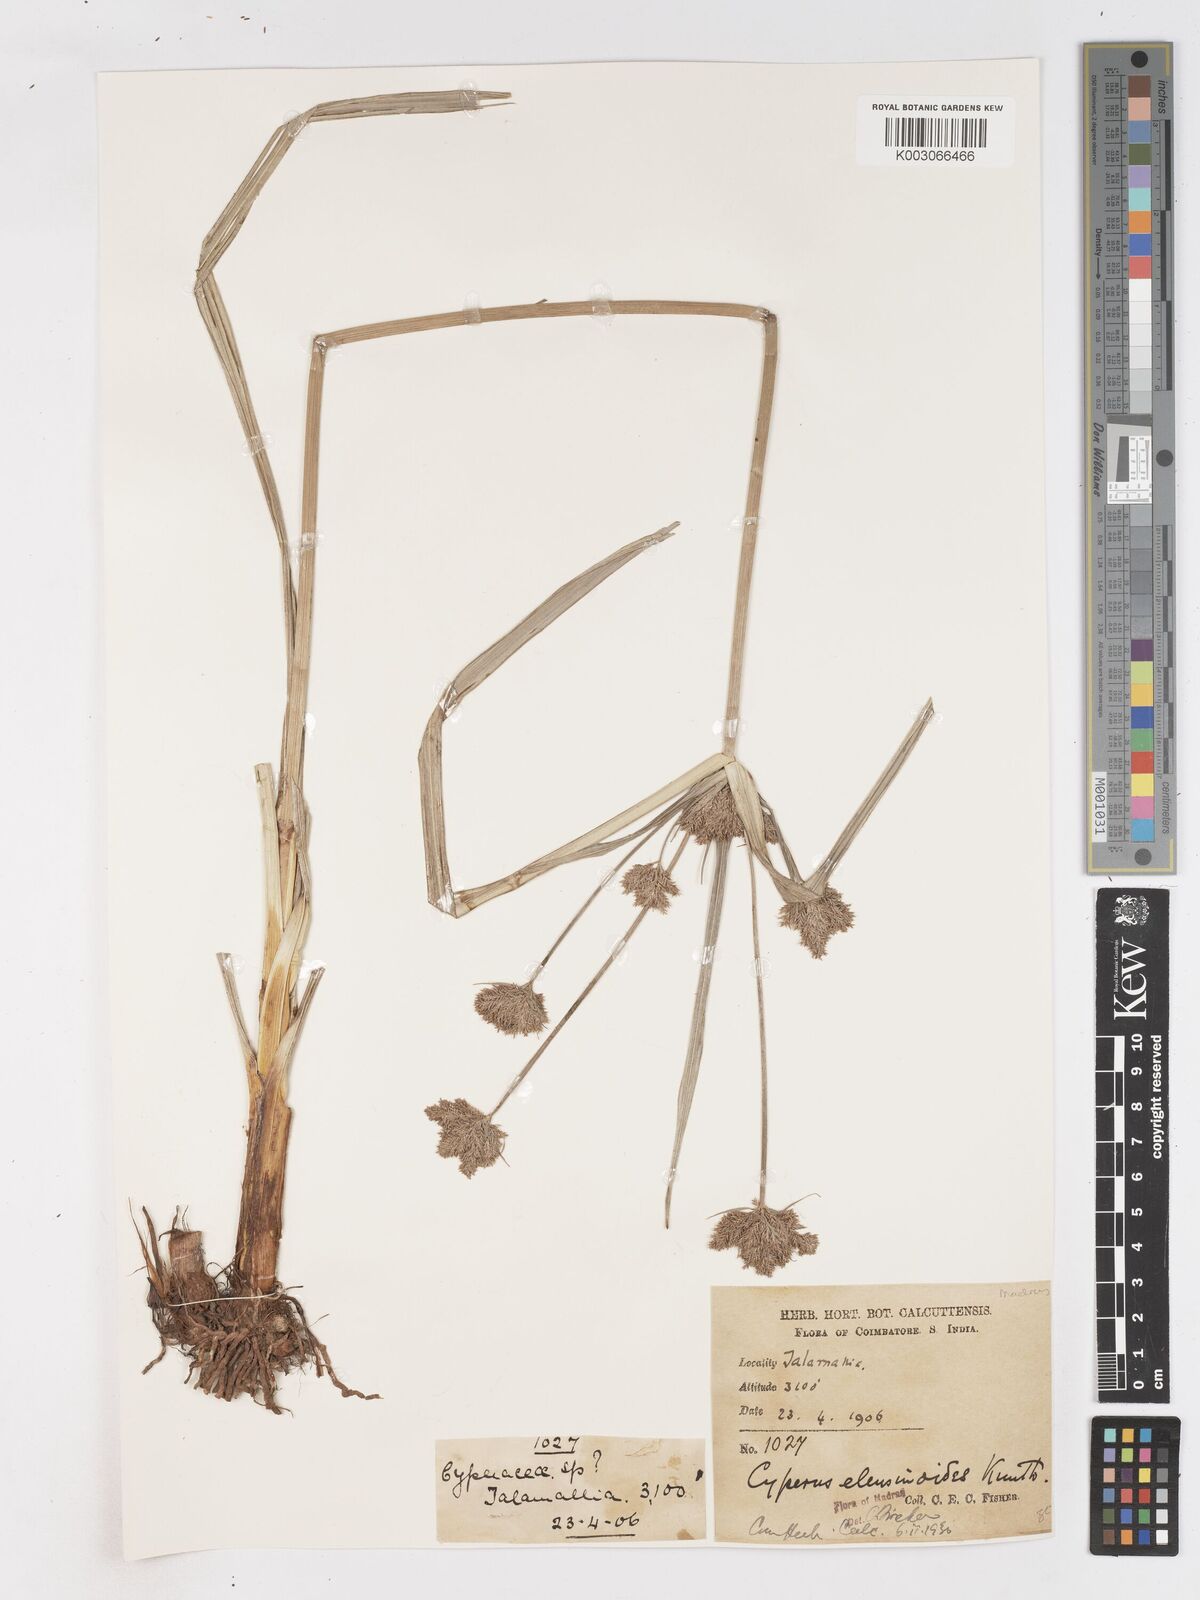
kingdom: Plantae
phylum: Tracheophyta
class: Liliopsida
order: Poales
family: Cyperaceae
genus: Cyperus
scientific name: Cyperus nutans
